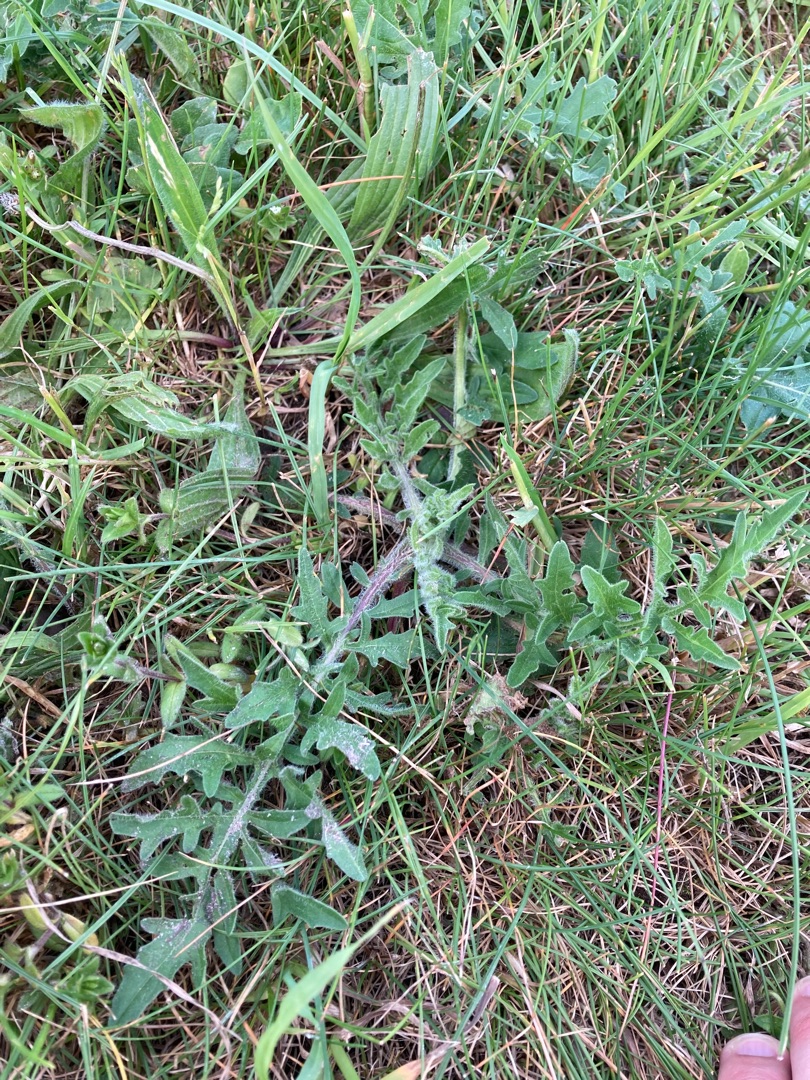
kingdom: Plantae
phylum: Tracheophyta
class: Magnoliopsida
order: Asterales
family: Asteraceae
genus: Centaurea
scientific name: Centaurea scabiosa
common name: Stor knopurt
